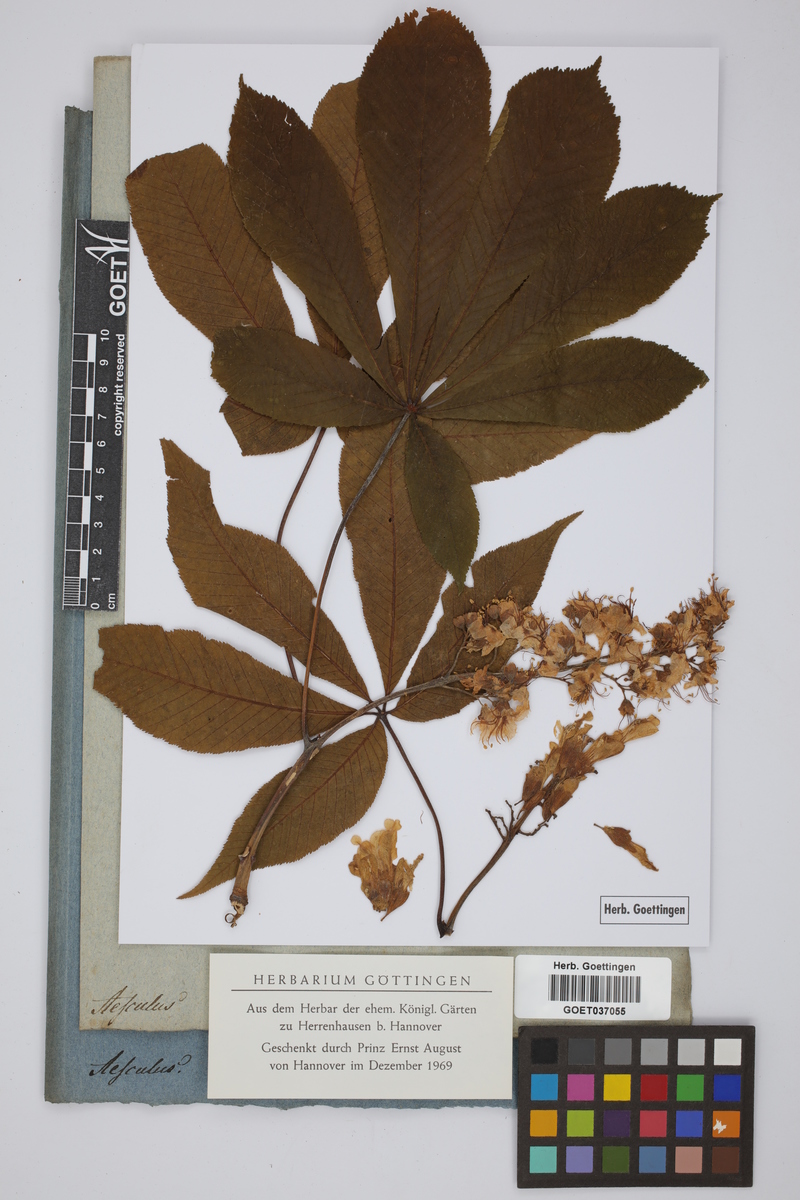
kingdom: Plantae
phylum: Tracheophyta
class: Magnoliopsida
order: Sapindales
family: Sapindaceae
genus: Aesculus
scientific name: Aesculus
